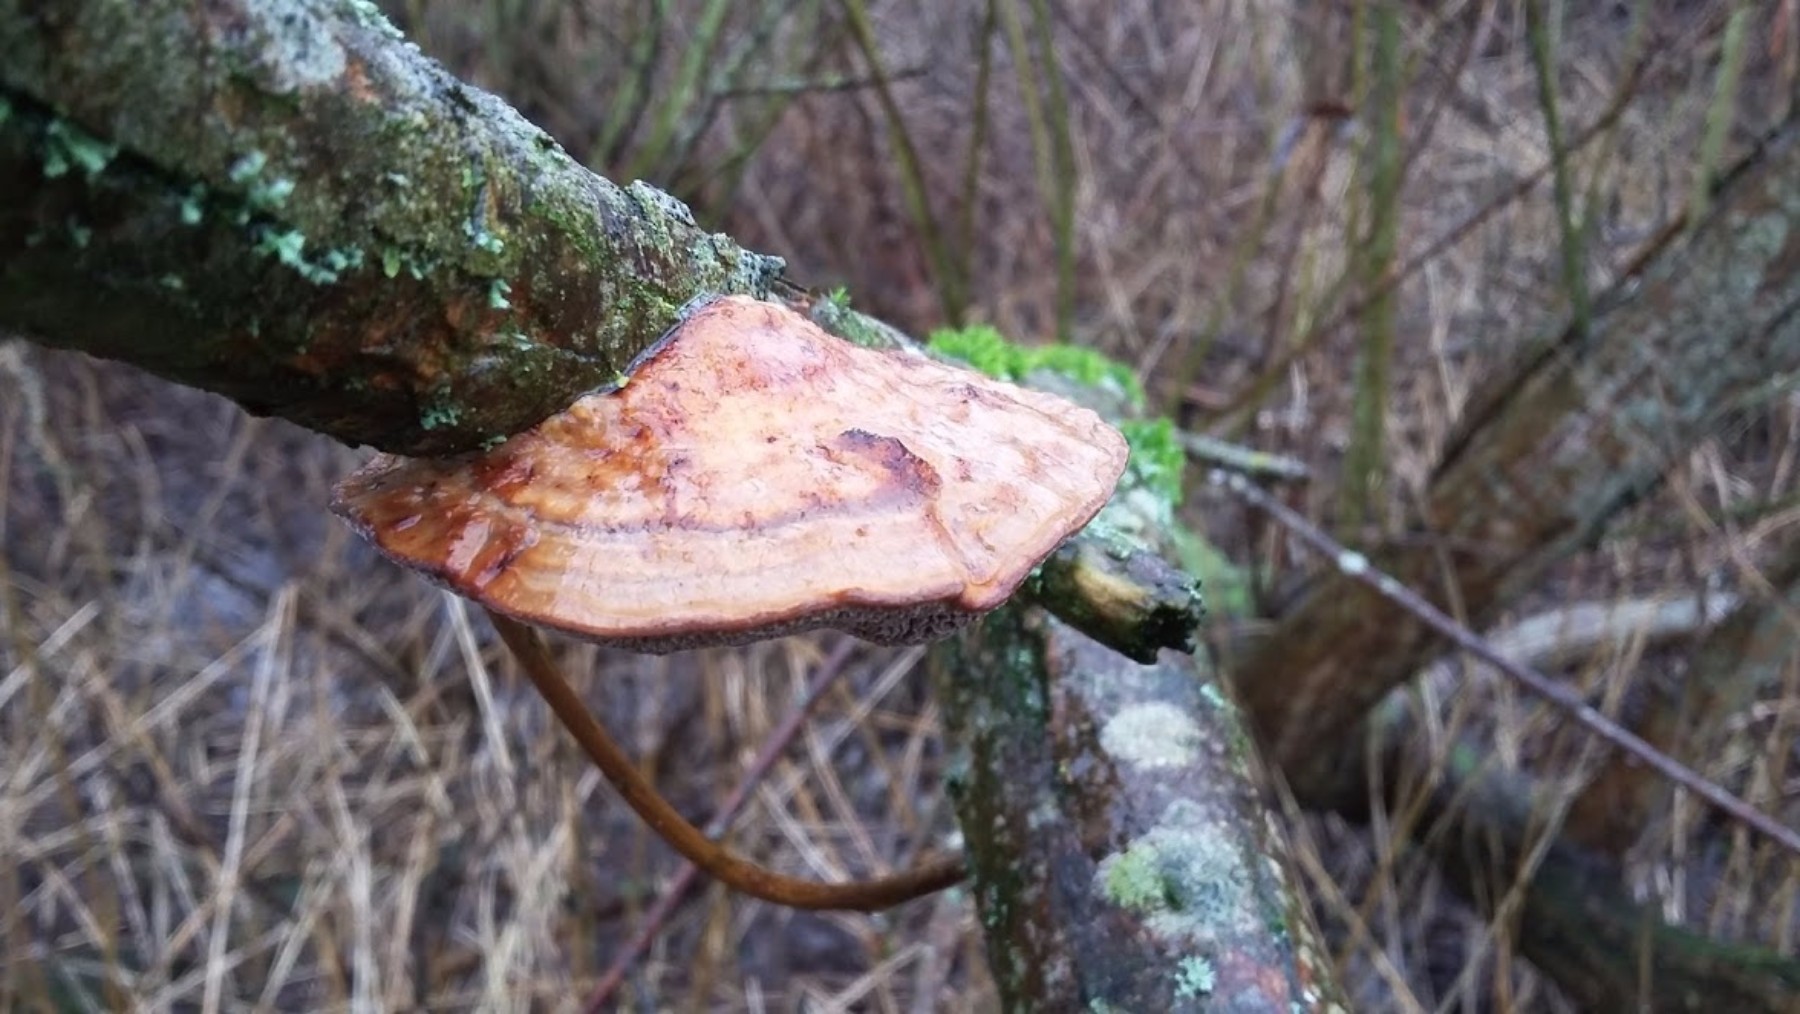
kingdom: Fungi
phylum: Basidiomycota
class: Agaricomycetes
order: Polyporales
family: Polyporaceae
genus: Daedaleopsis
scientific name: Daedaleopsis confragosa
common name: rødmende læderporesvamp
